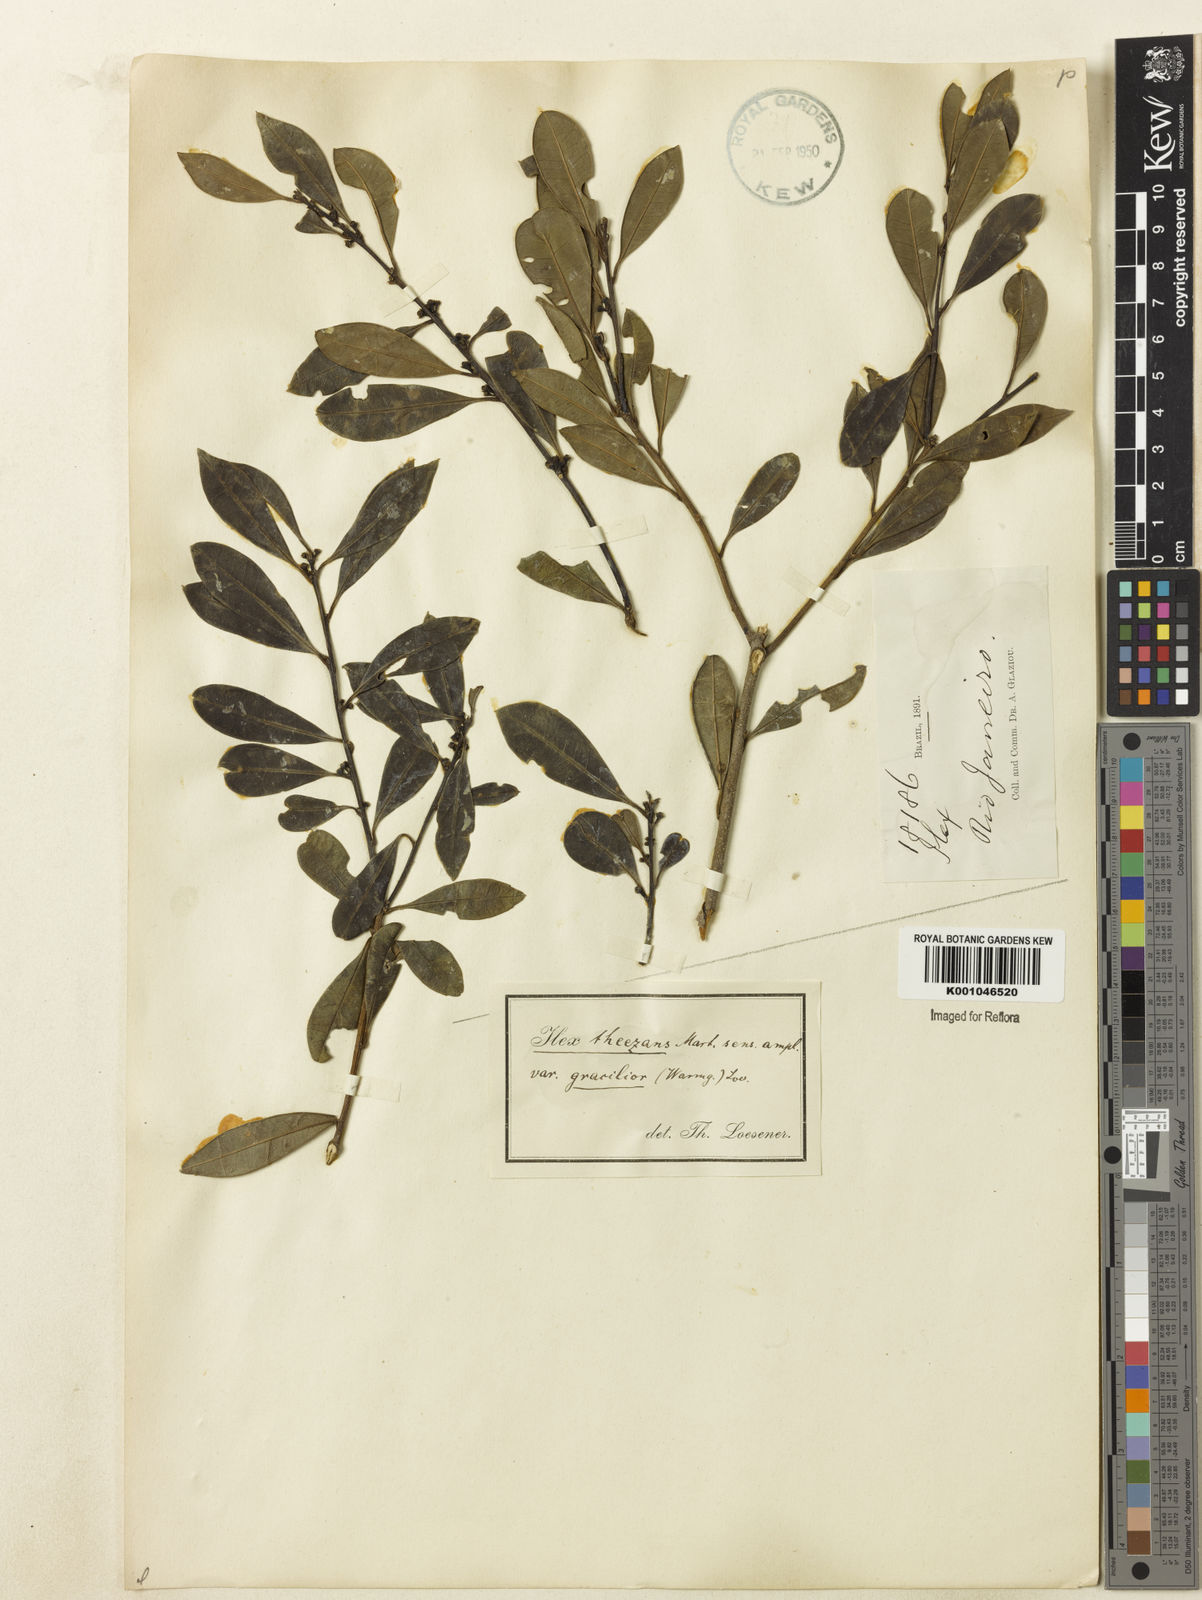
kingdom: Plantae
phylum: Tracheophyta
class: Magnoliopsida
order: Aquifoliales
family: Aquifoliaceae
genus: Ilex
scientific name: Ilex gracilior
